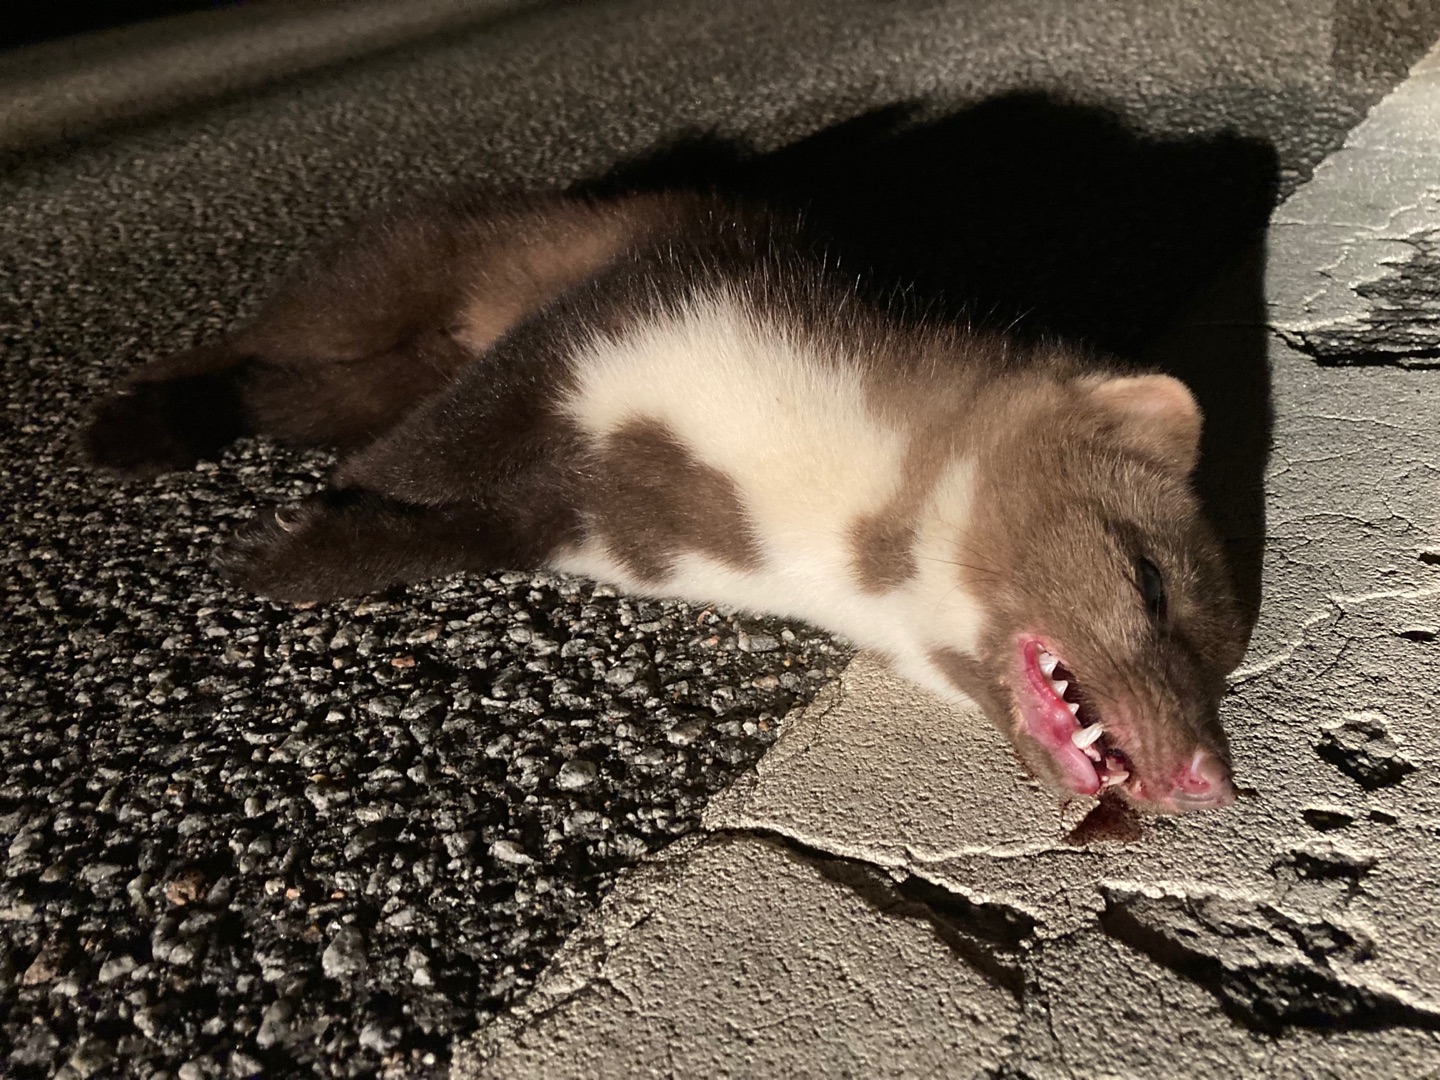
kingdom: Animalia
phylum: Chordata
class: Mammalia
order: Carnivora
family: Mustelidae
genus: Martes
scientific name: Martes foina
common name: Husmår
